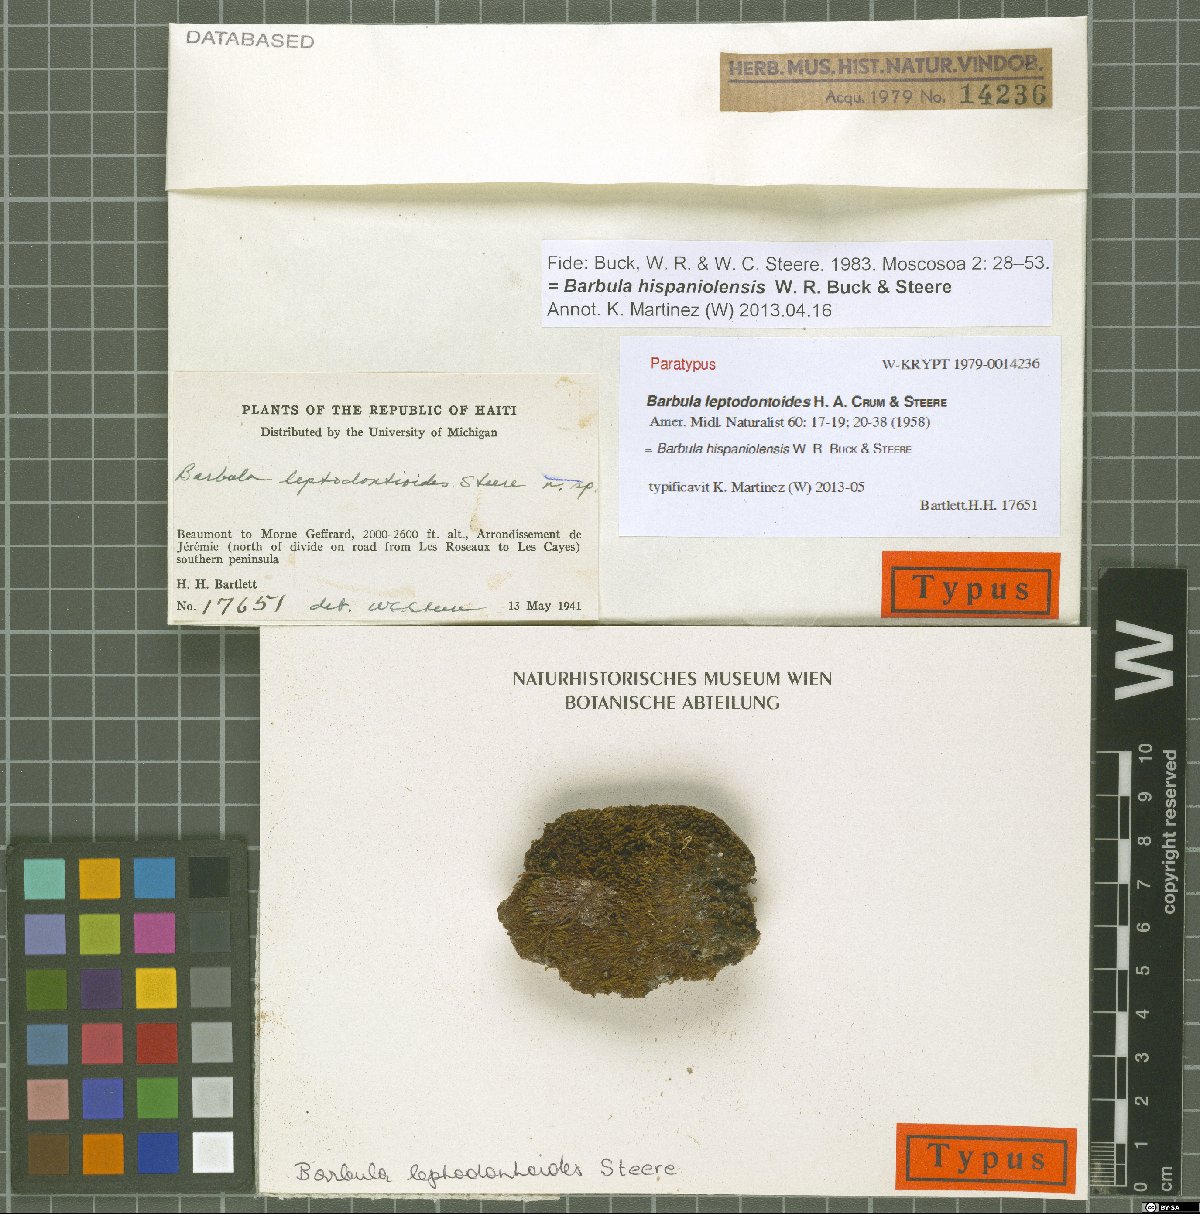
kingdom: Plantae
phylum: Bryophyta
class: Bryopsida
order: Pottiales
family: Pottiaceae
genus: Barbula
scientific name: Barbula hispaniolensis
